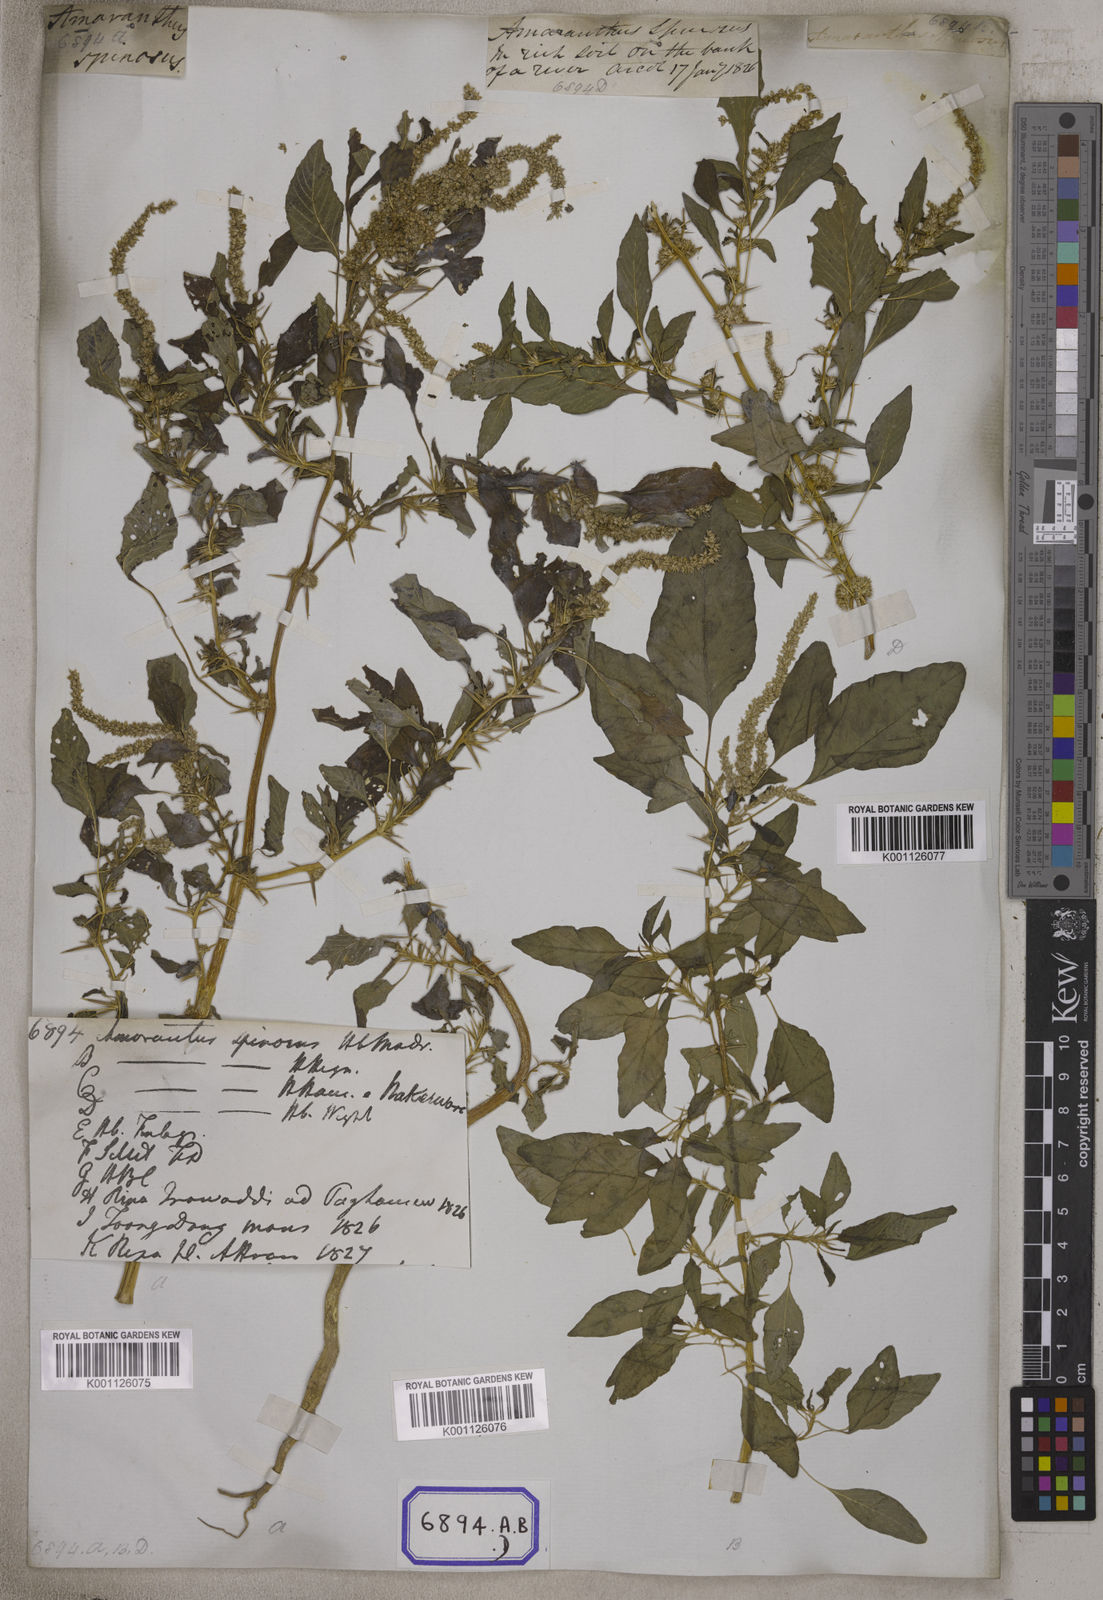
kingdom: Plantae
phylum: Tracheophyta
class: Magnoliopsida
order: Caryophyllales
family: Amaranthaceae
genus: Amaranthus
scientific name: Amaranthus spinosus
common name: Spiny amaranth
